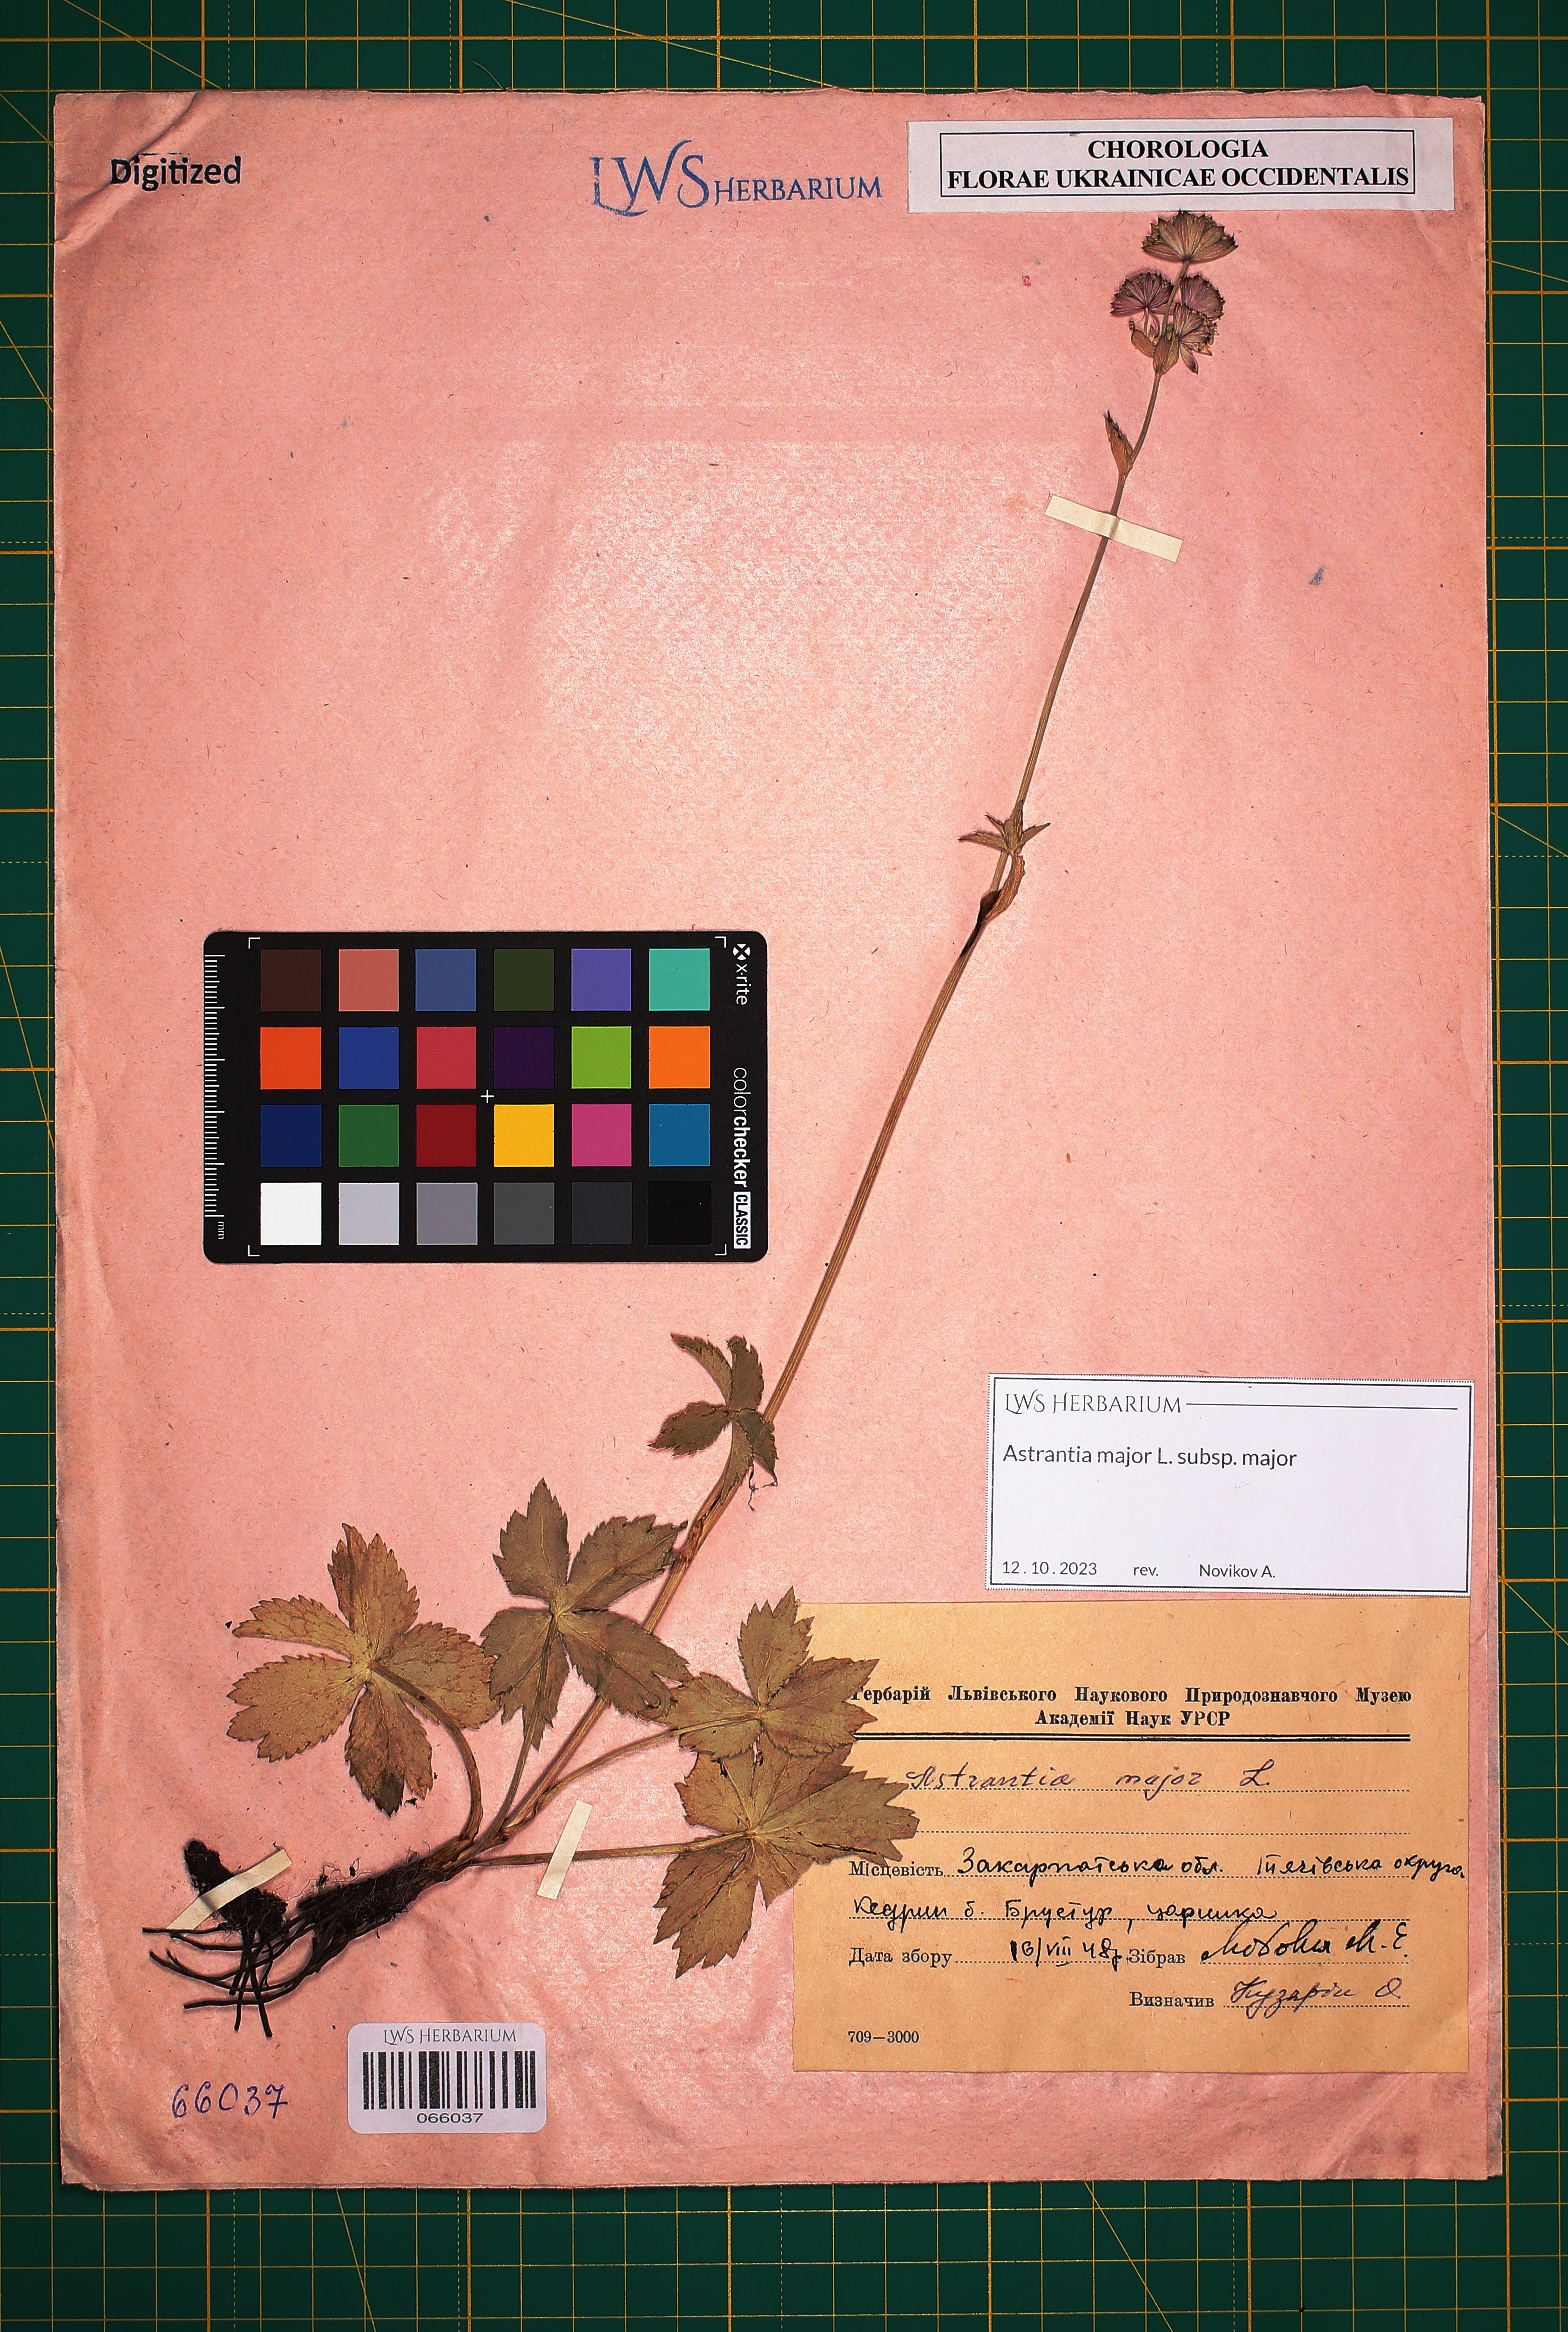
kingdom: Plantae
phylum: Tracheophyta
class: Magnoliopsida
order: Apiales
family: Apiaceae
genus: Astrantia
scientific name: Astrantia major
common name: Greater masterwort
